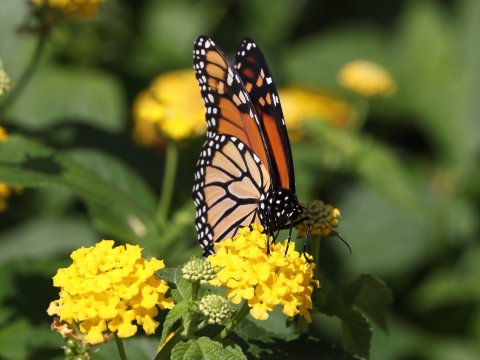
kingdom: Animalia
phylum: Arthropoda
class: Insecta
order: Lepidoptera
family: Nymphalidae
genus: Danaus
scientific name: Danaus plexippus
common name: Monarch
